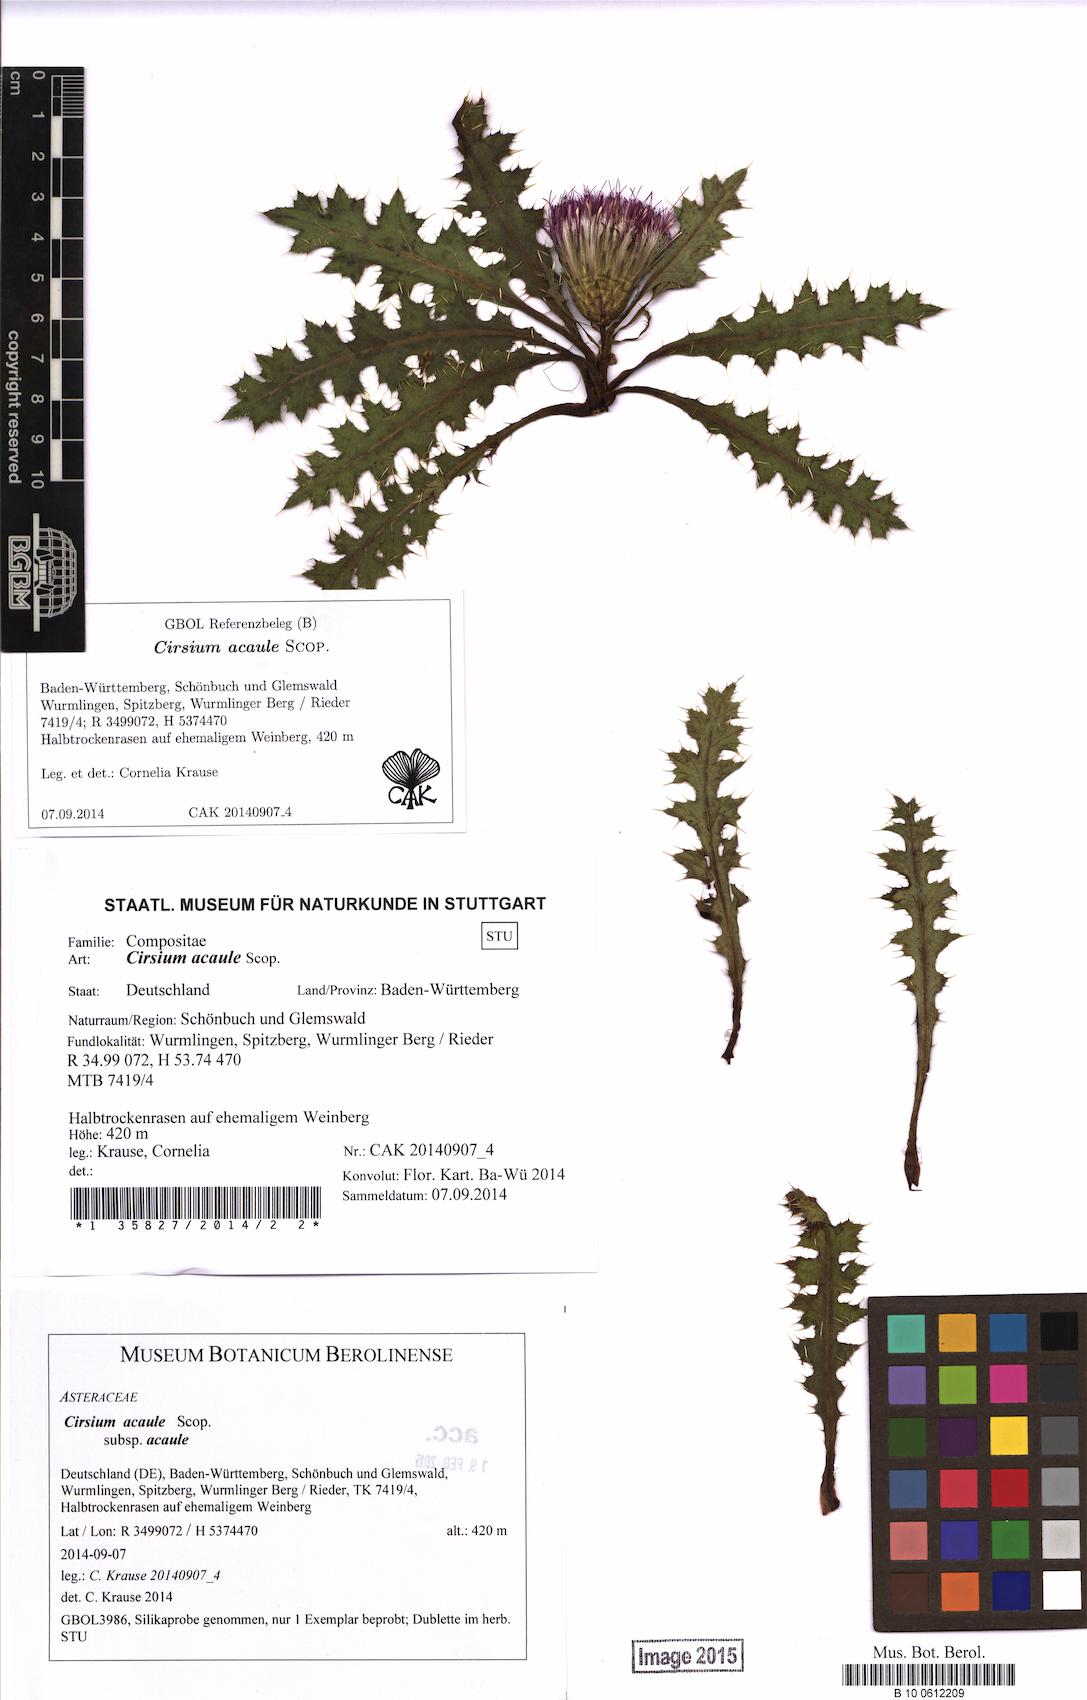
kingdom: Plantae
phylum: Tracheophyta
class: Magnoliopsida
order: Asterales
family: Asteraceae
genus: Cirsium
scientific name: Cirsium acaule
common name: Dwarf thistle
